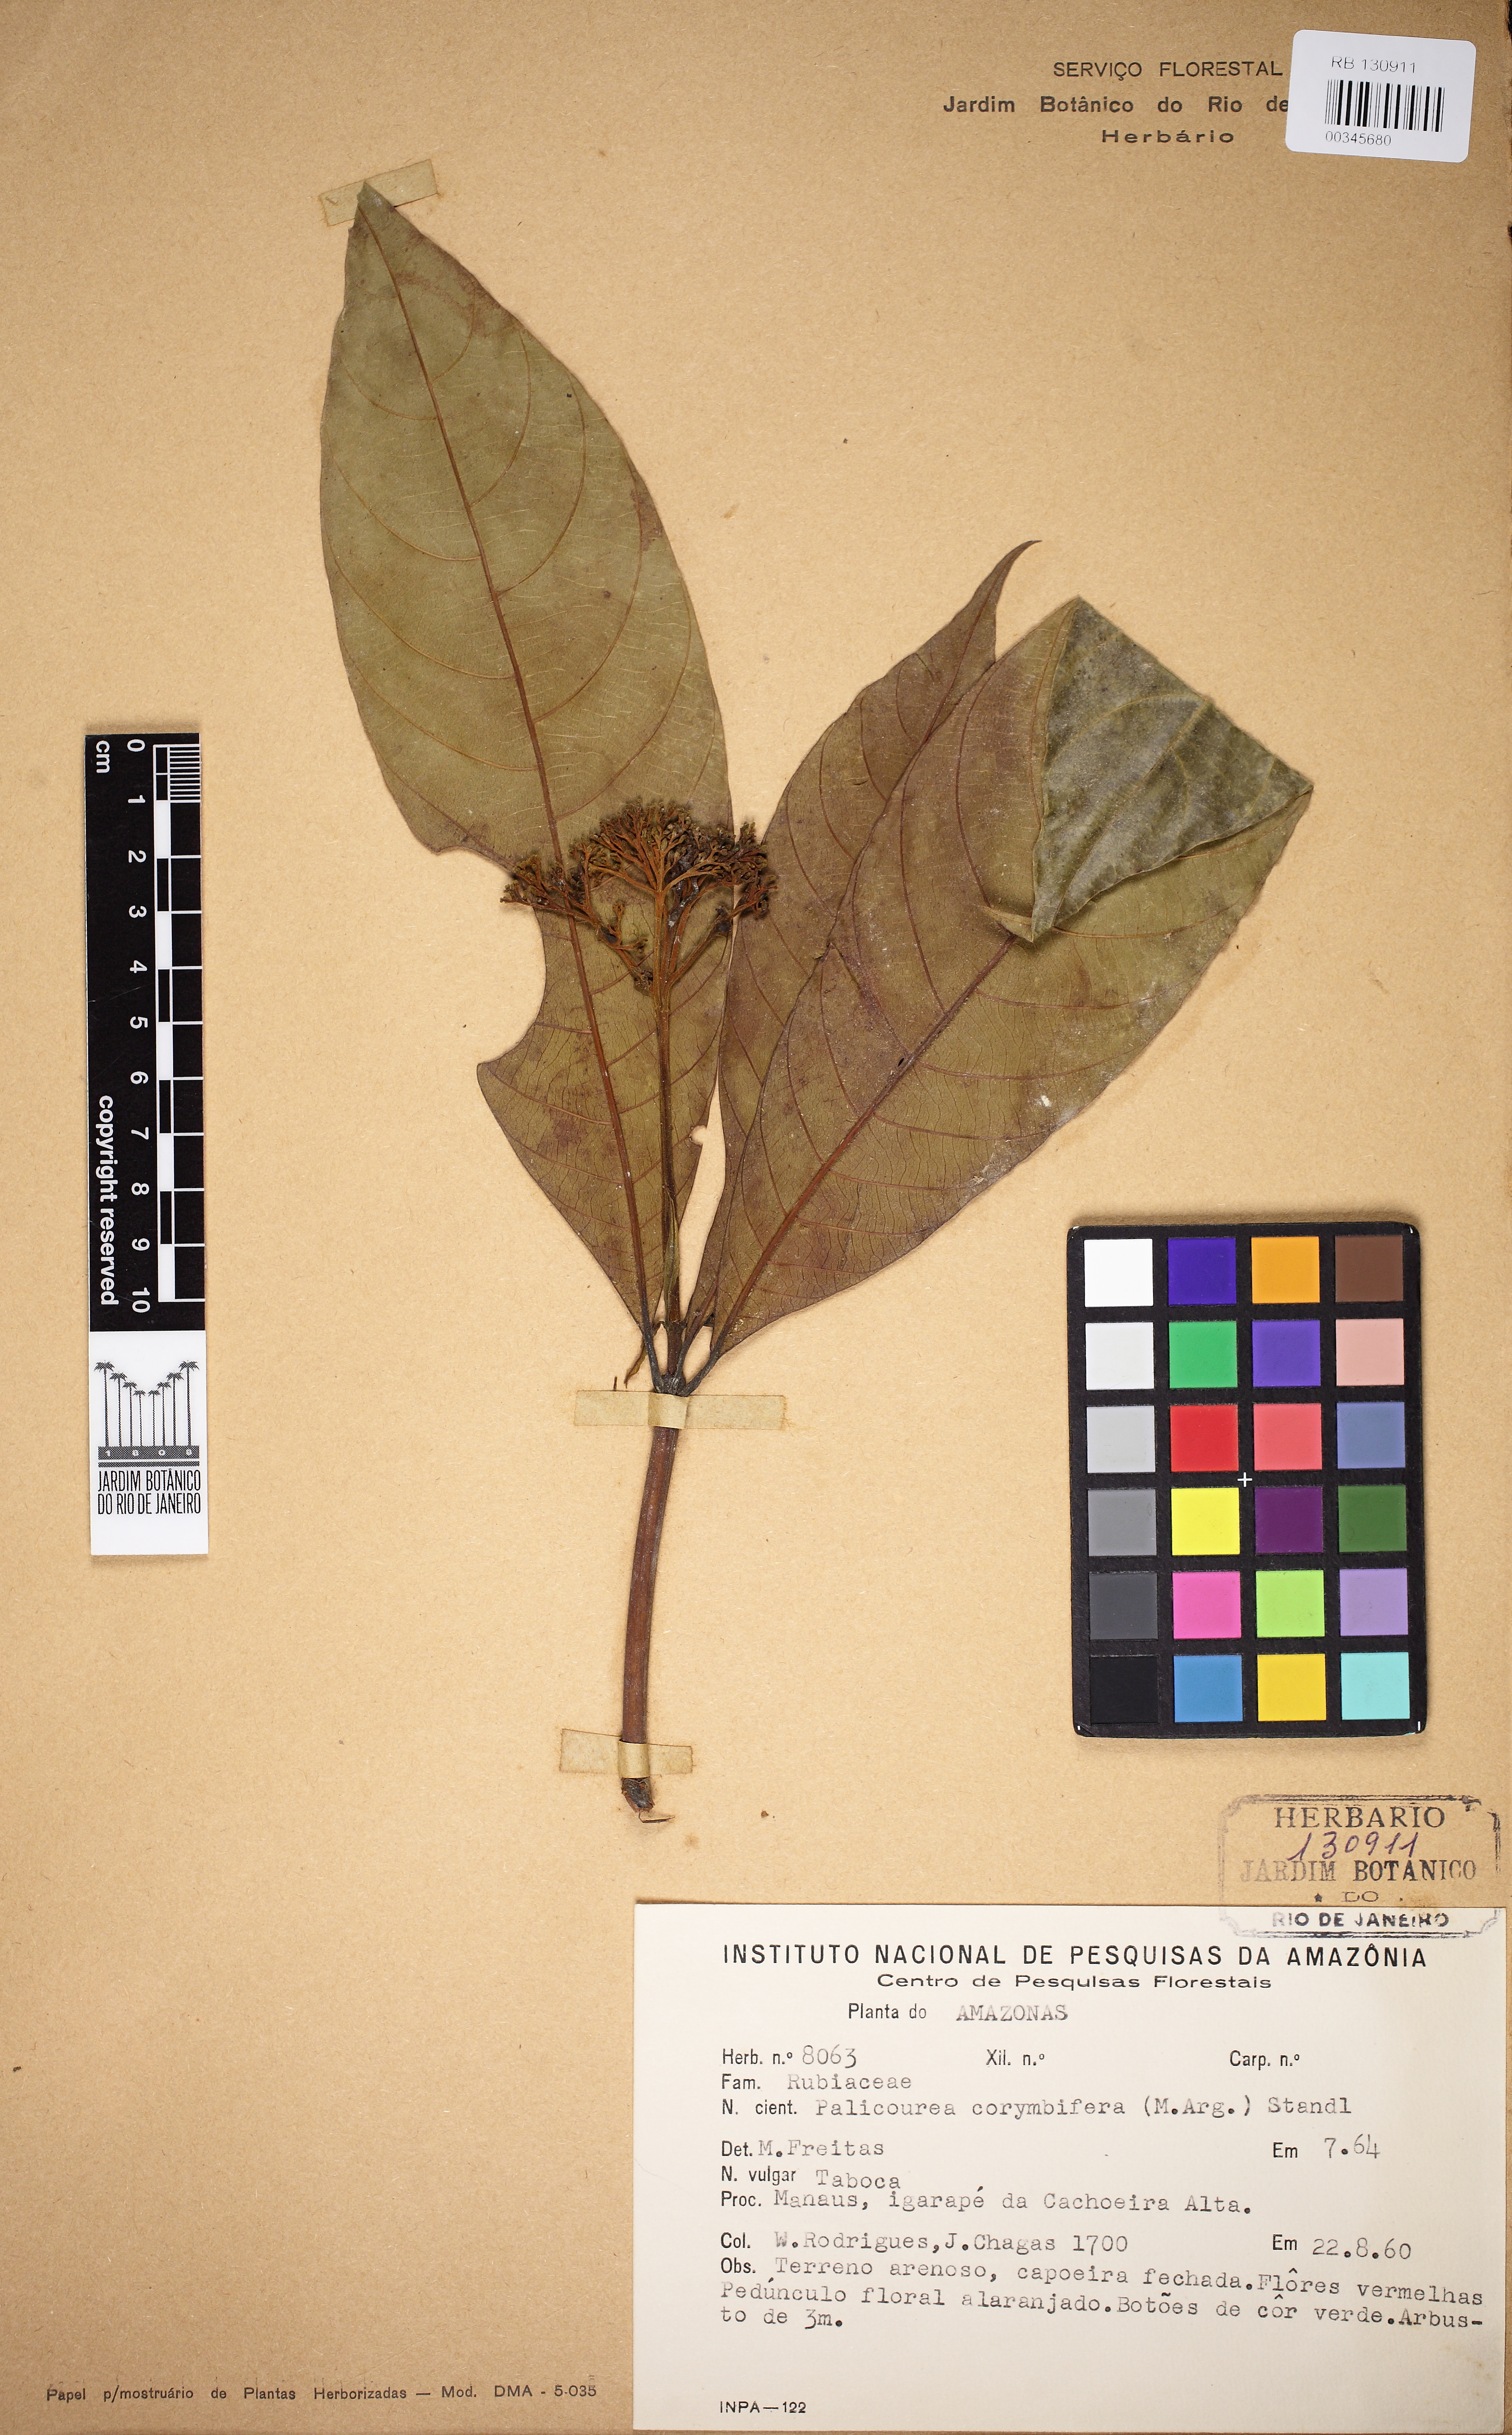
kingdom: Plantae
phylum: Tracheophyta
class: Magnoliopsida
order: Gentianales
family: Rubiaceae
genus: Palicourea
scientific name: Palicourea corymbifera
